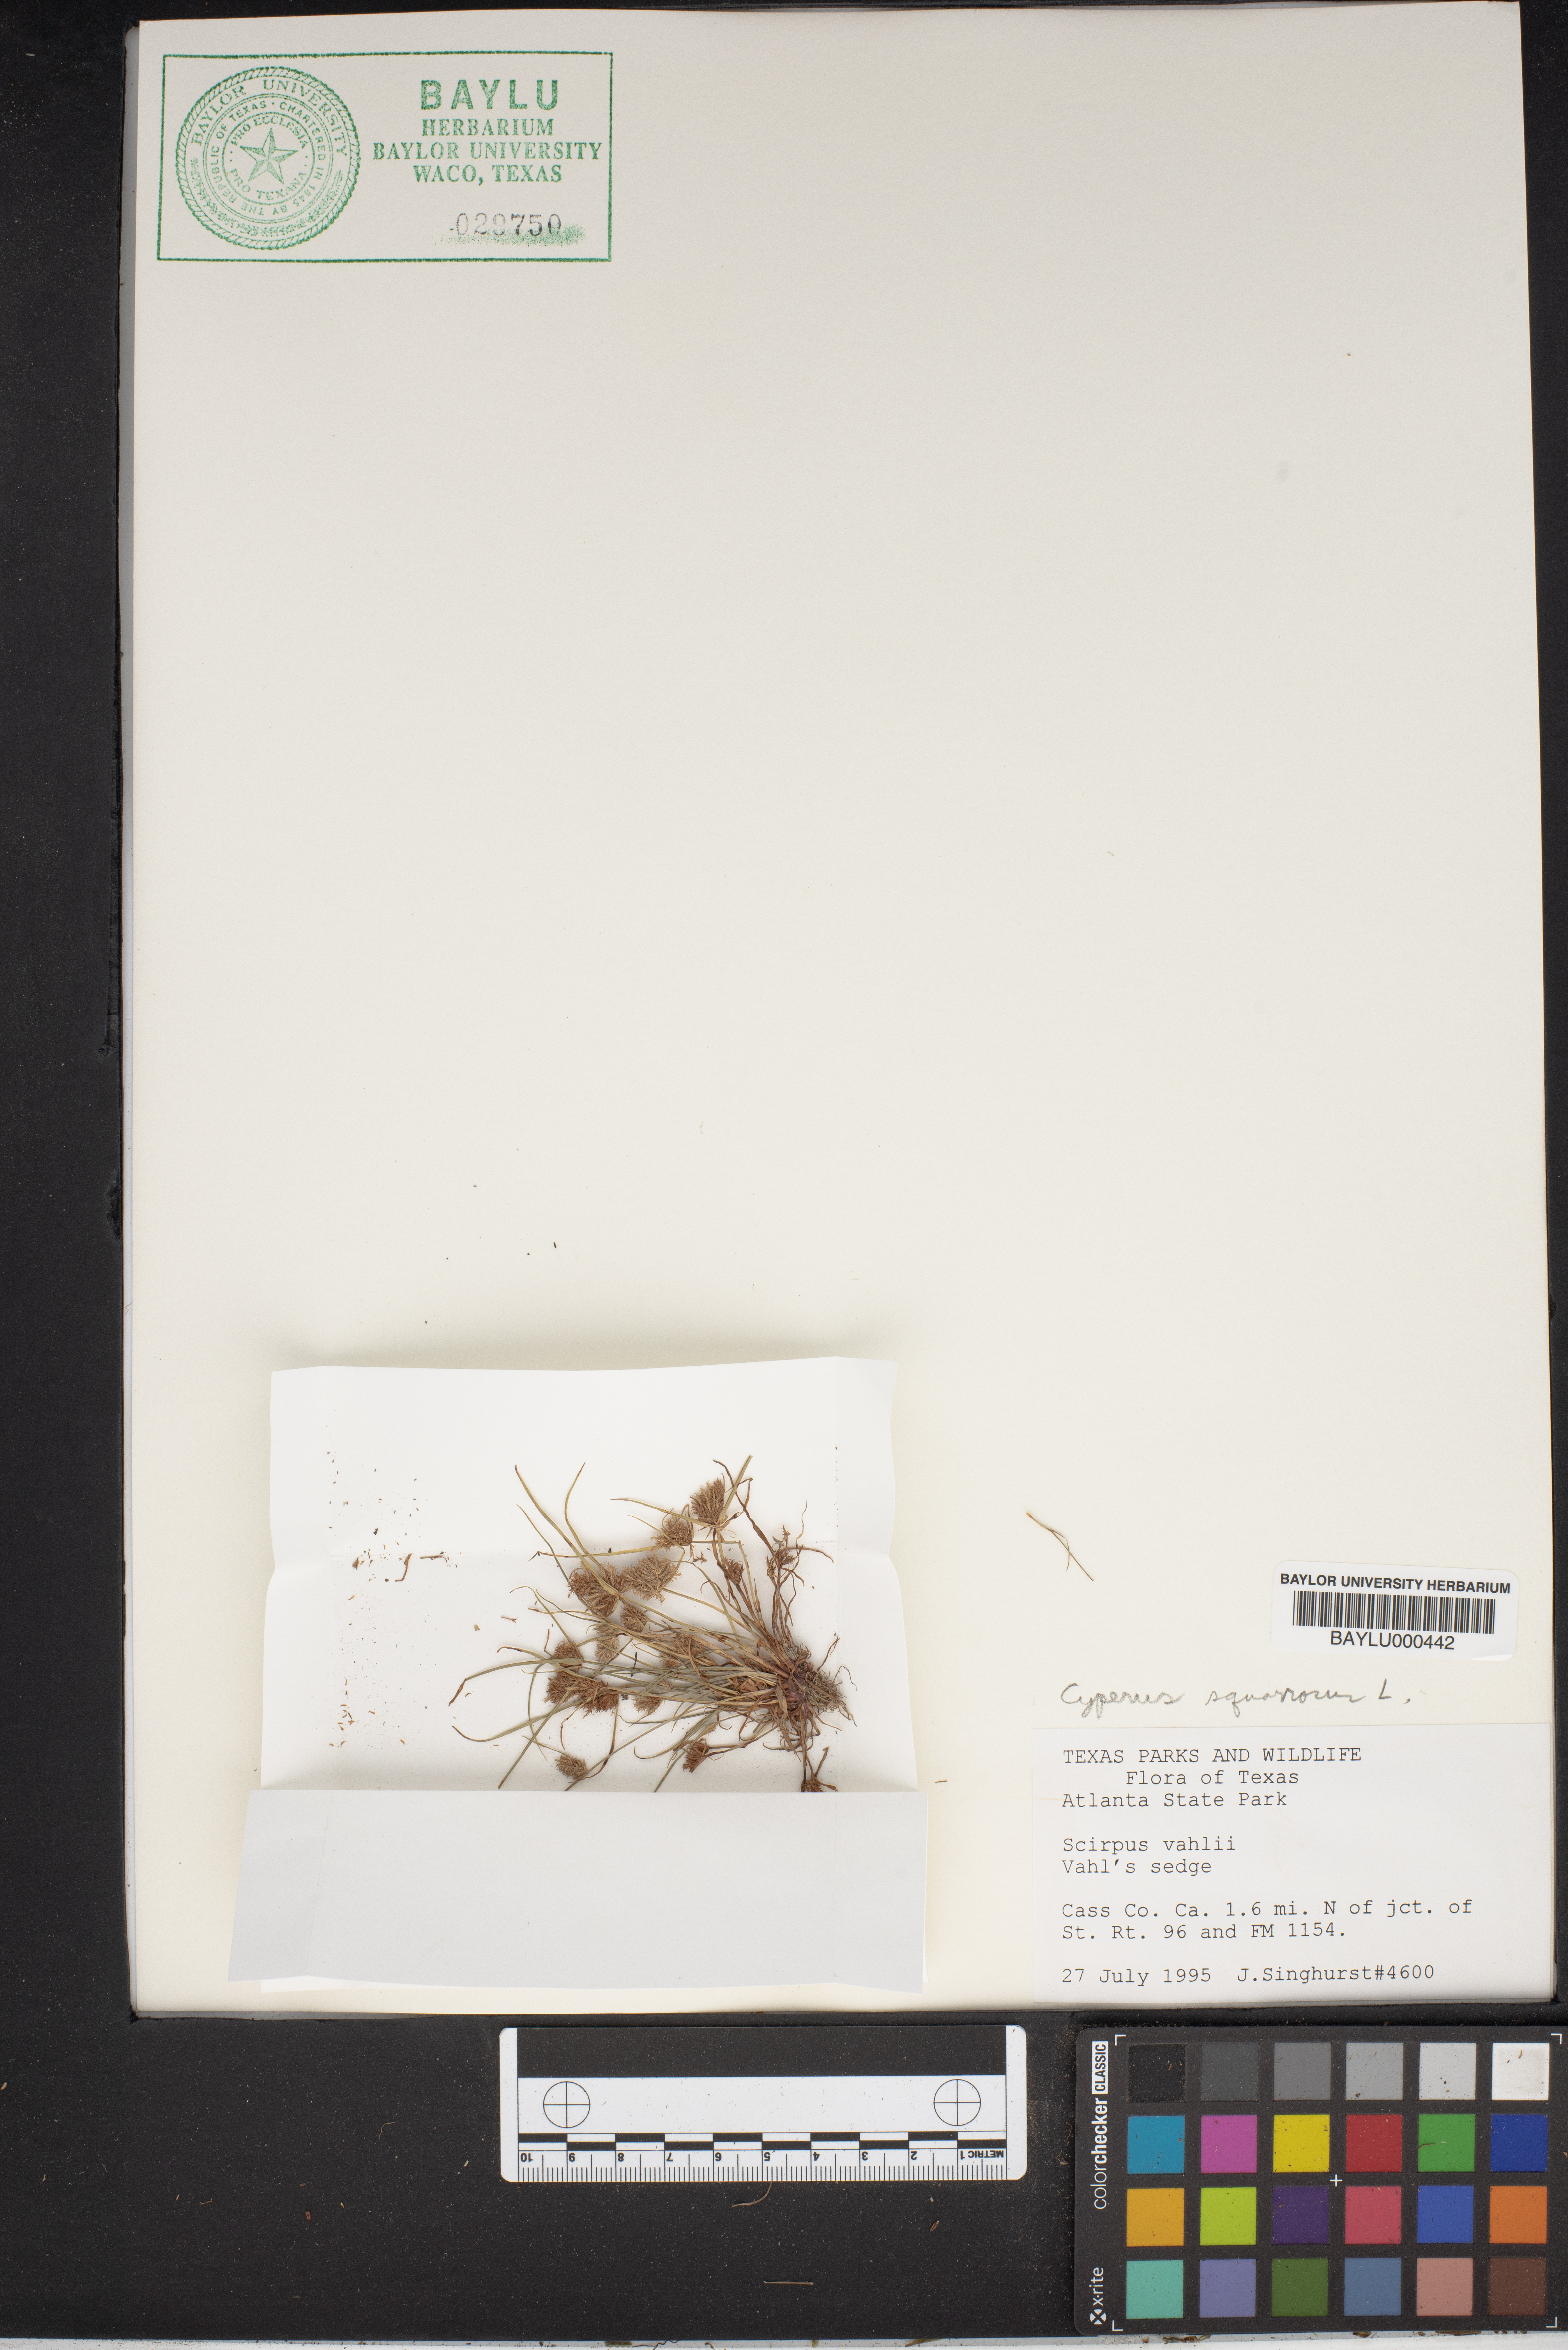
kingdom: Plantae
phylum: Tracheophyta
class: Liliopsida
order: Poales
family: Cyperaceae
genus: Cyperus
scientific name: Cyperus squarrosus
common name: Awned cyperus
